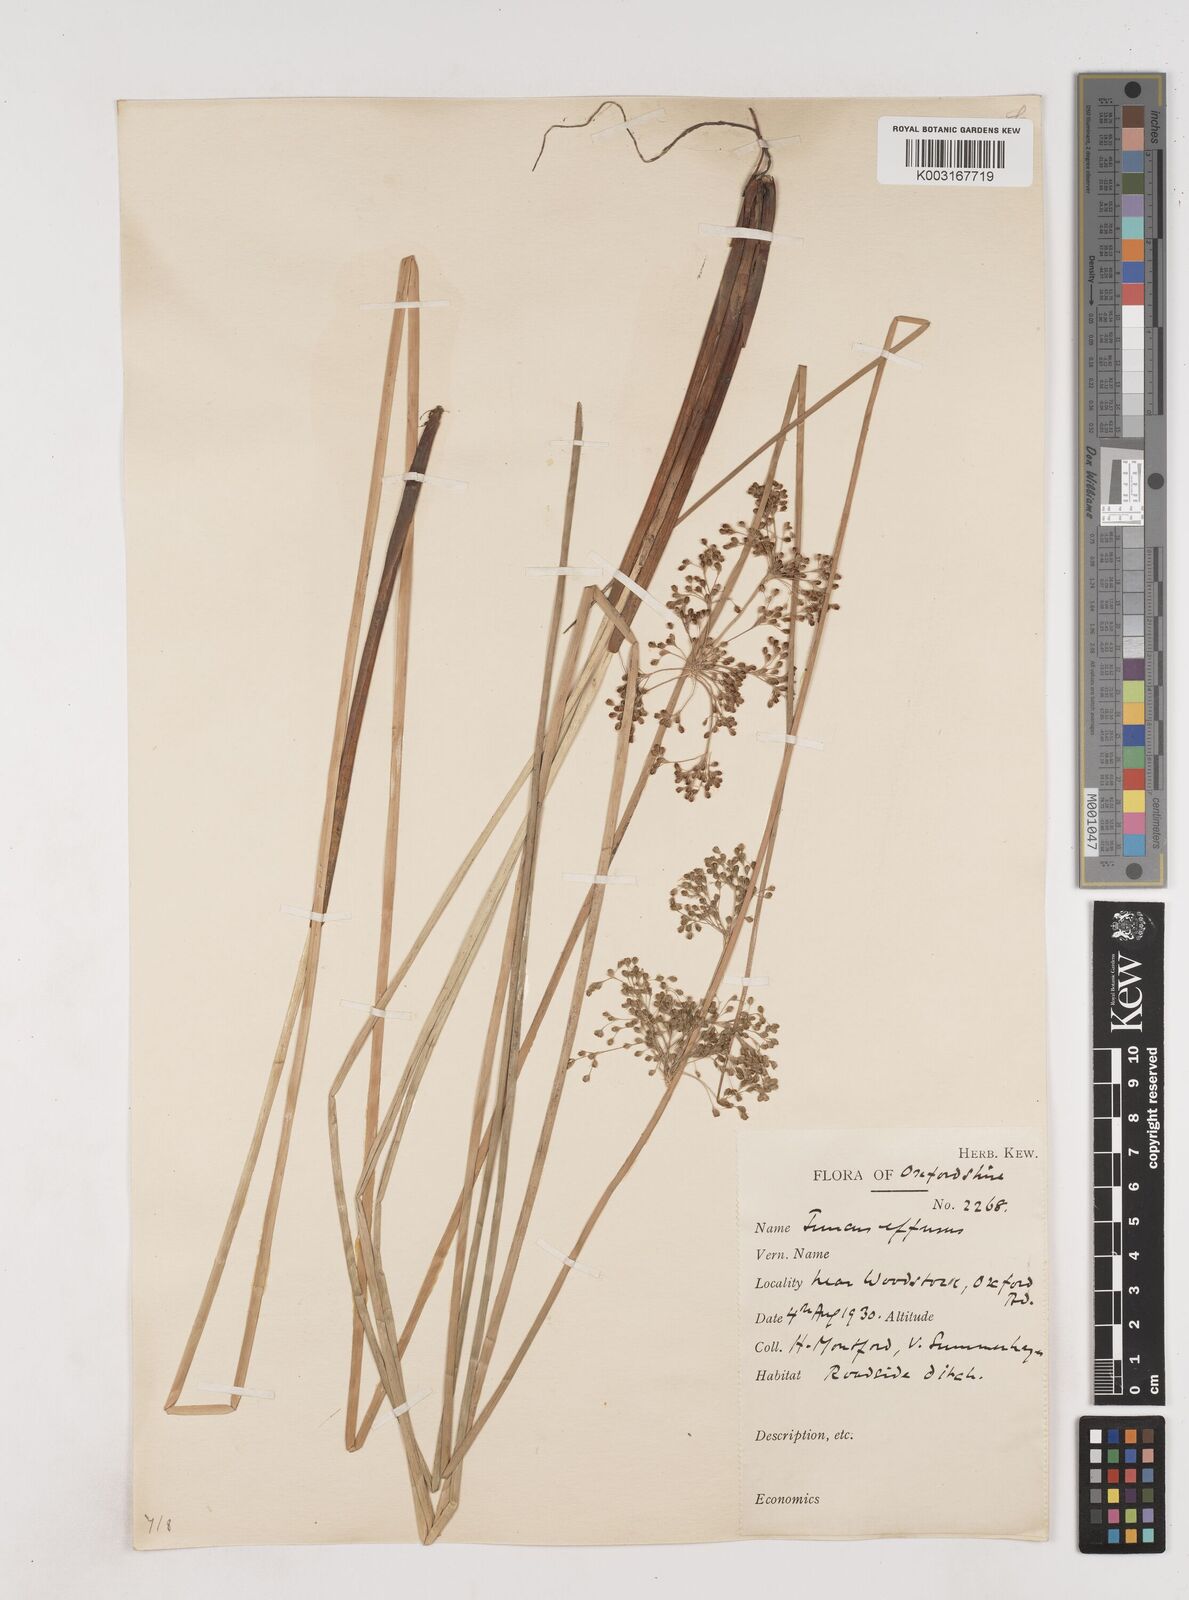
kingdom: Plantae
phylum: Tracheophyta
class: Liliopsida
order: Poales
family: Juncaceae
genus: Juncus
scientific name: Juncus effusus
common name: Soft rush
